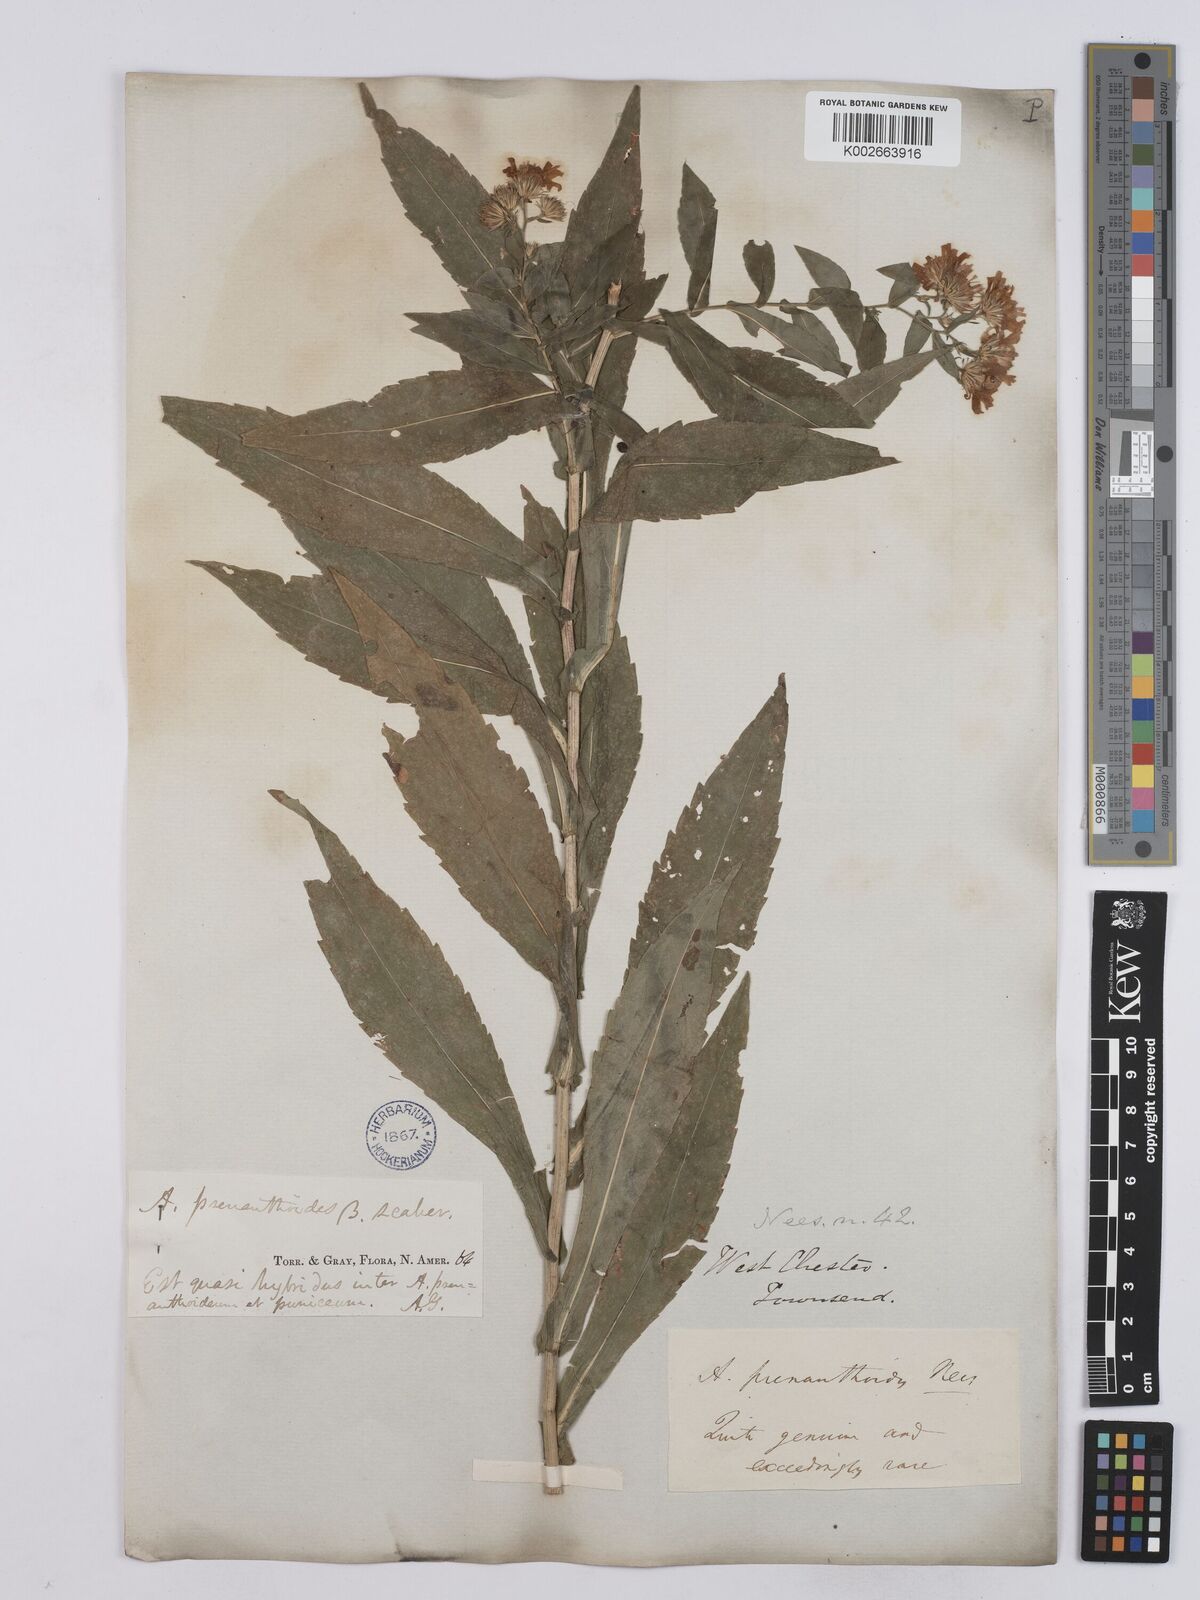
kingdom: Plantae
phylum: Tracheophyta
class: Magnoliopsida
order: Asterales
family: Asteraceae
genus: Symphyotrichum
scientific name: Symphyotrichum prenanthoides
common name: Crooked-stem aster
